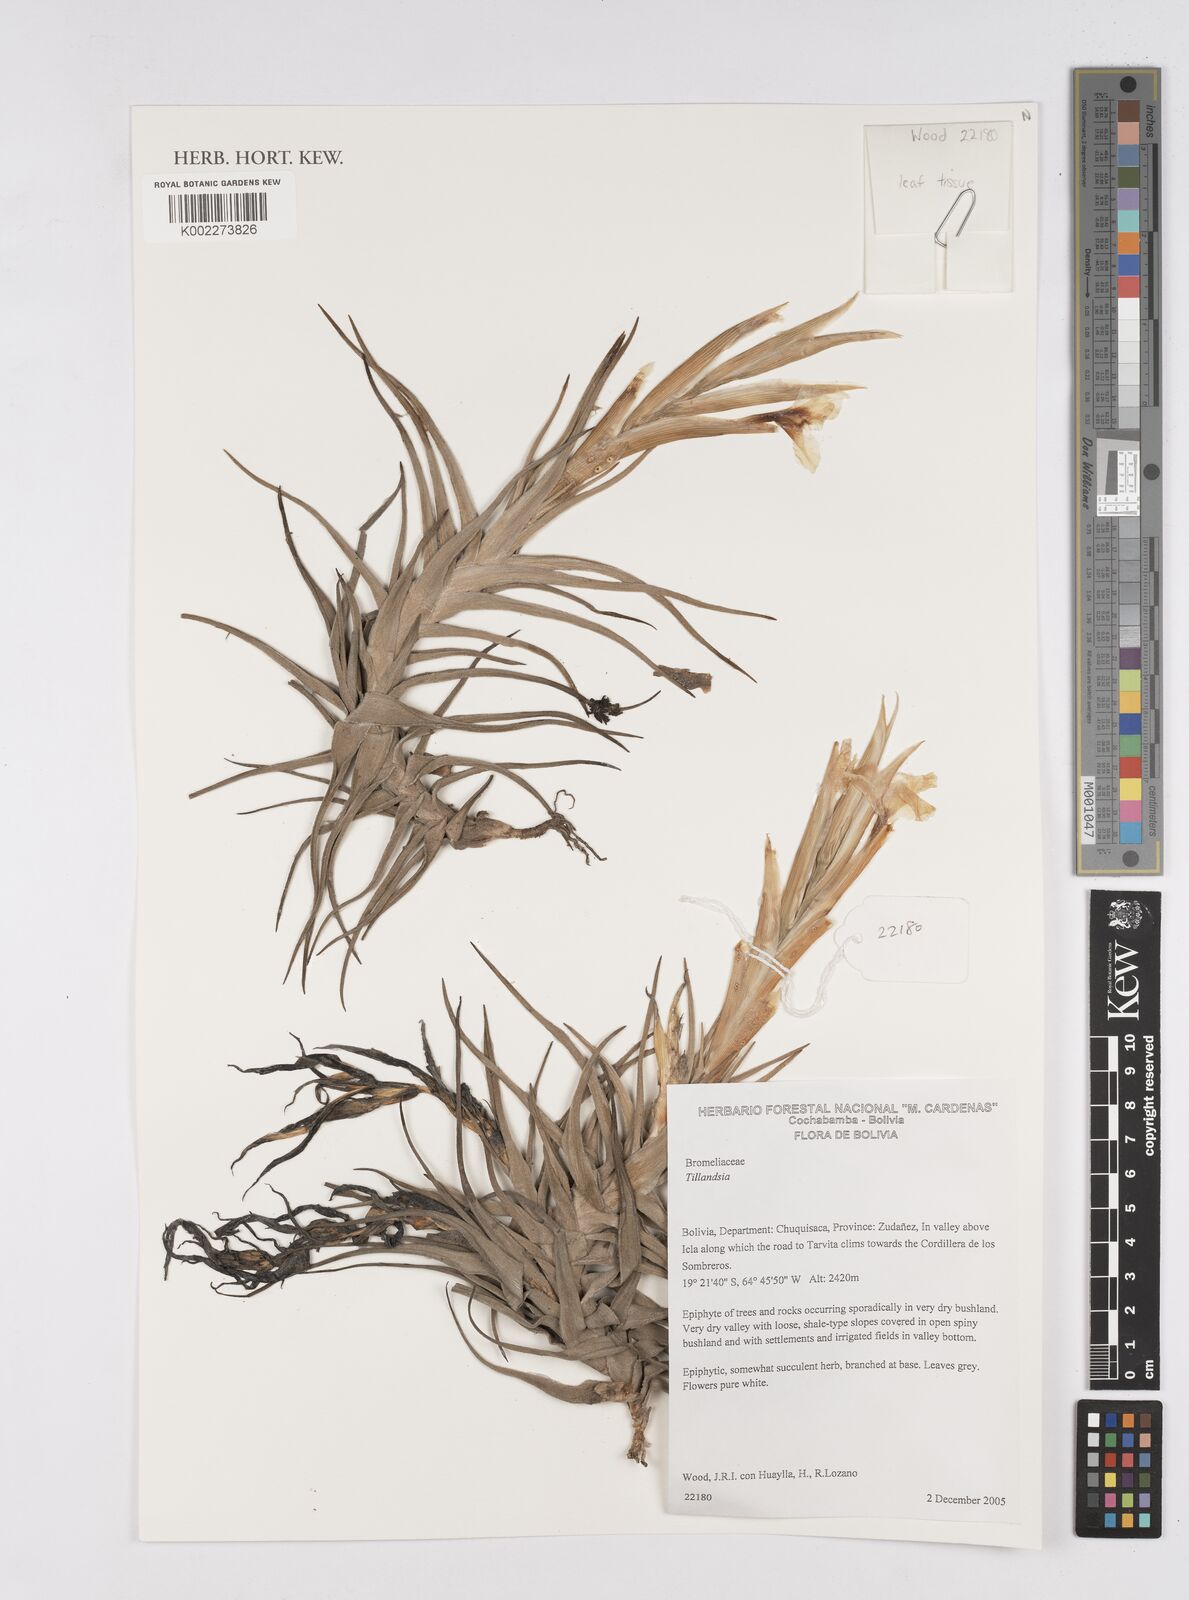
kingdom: Plantae
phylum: Tracheophyta
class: Liliopsida
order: Poales
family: Bromeliaceae
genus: Tillandsia
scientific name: Tillandsia
